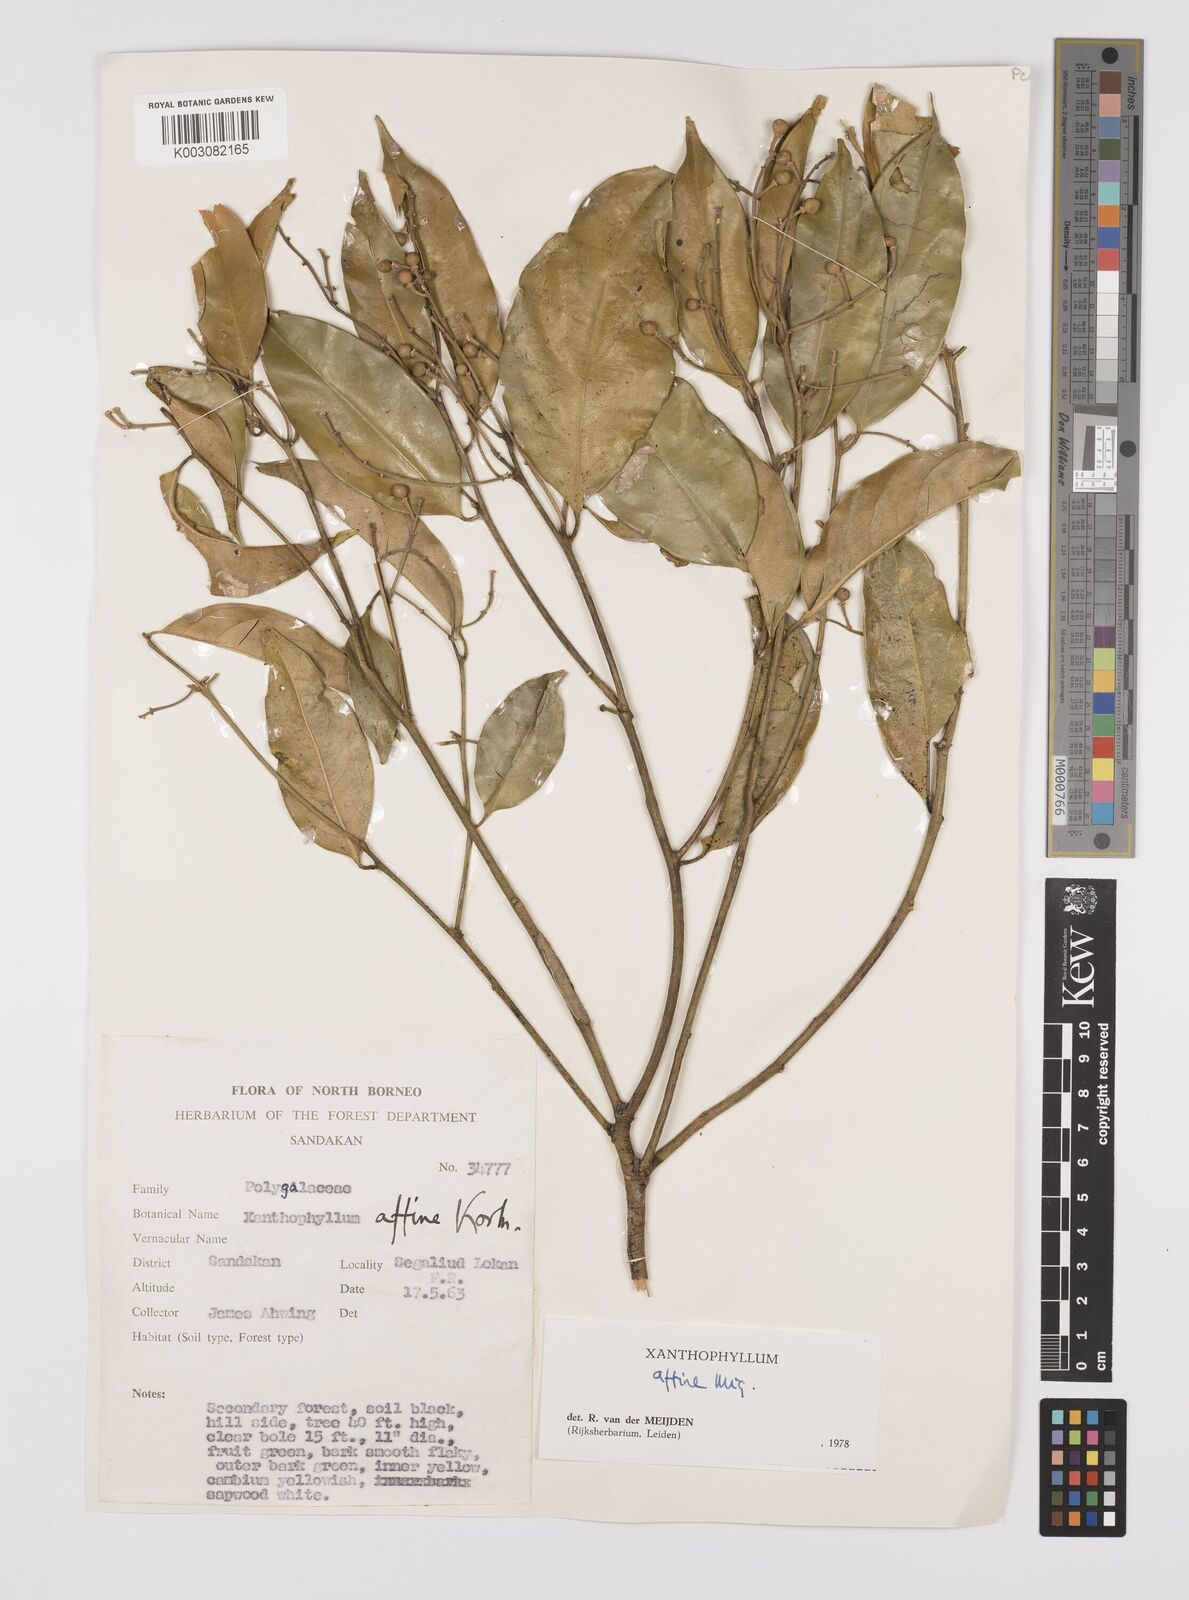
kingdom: Plantae
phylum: Tracheophyta
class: Magnoliopsida
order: Fabales
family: Polygalaceae
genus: Xanthophyllum
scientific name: Xanthophyllum flavescens
